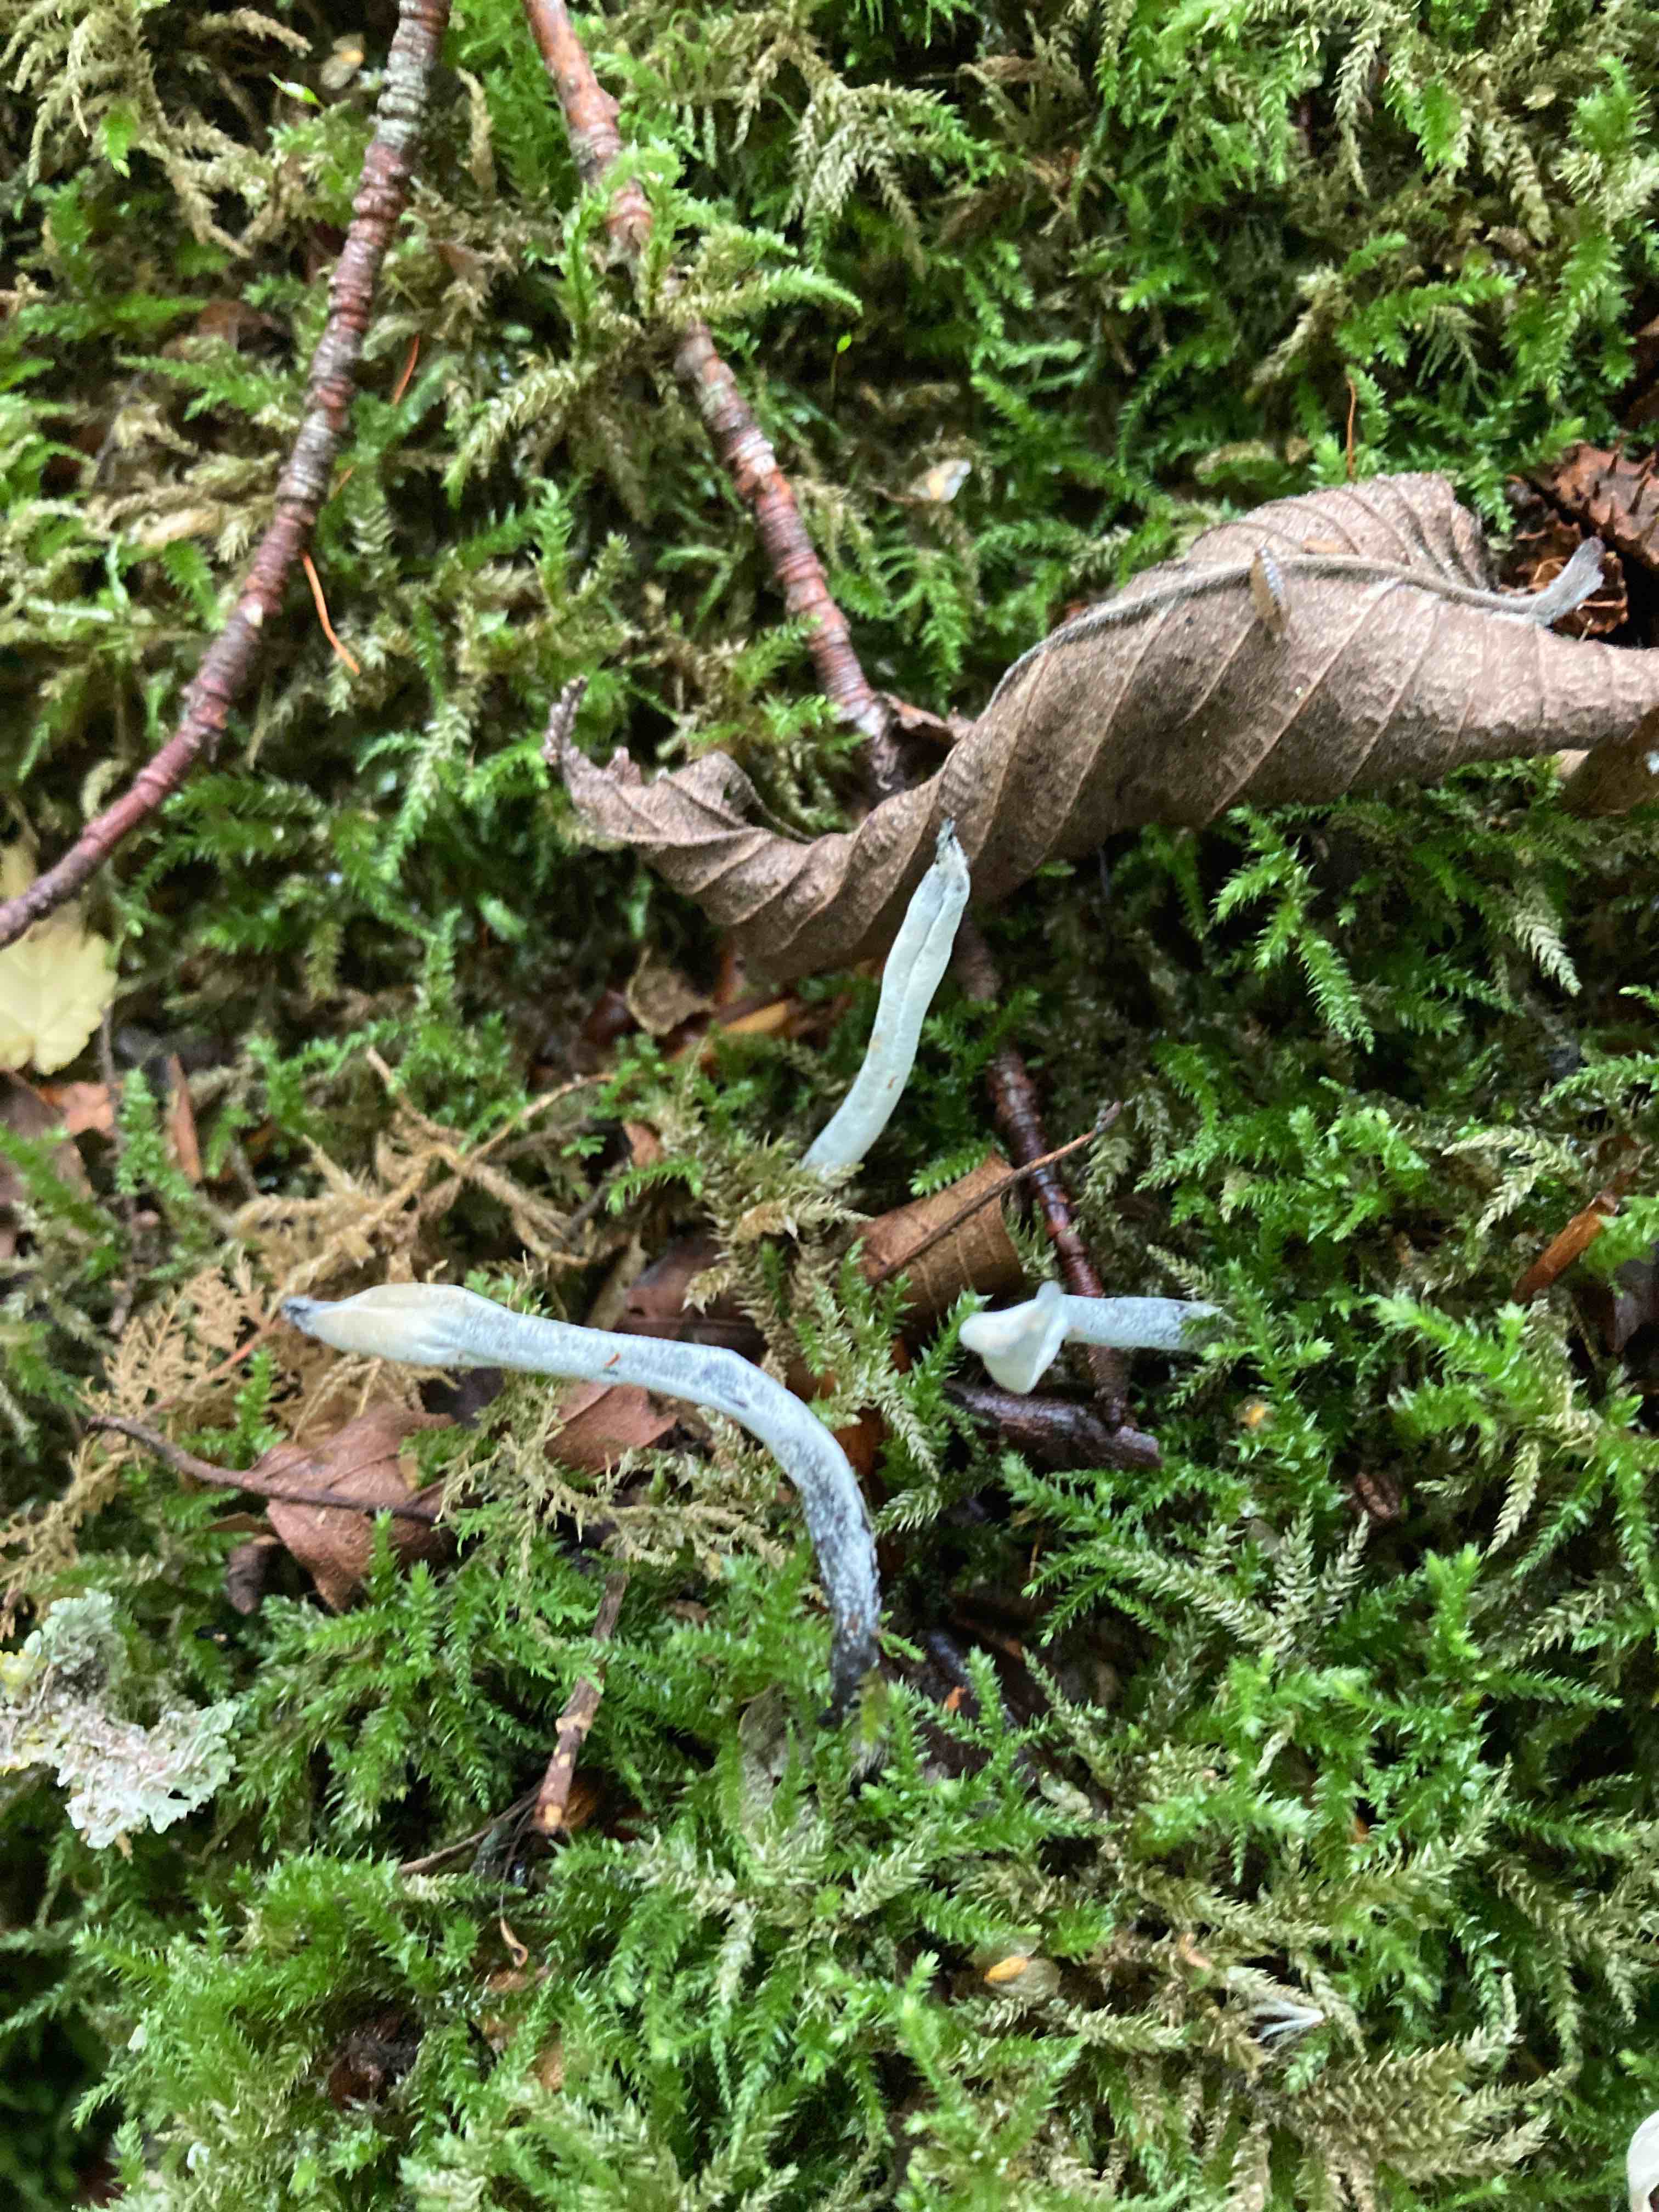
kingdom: Fungi
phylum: Ascomycota
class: Sordariomycetes
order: Hypocreales
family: Hypocreaceae
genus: Hypomyces
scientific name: Hypomyces papulasporae
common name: jordtunge-snylteskorpe
